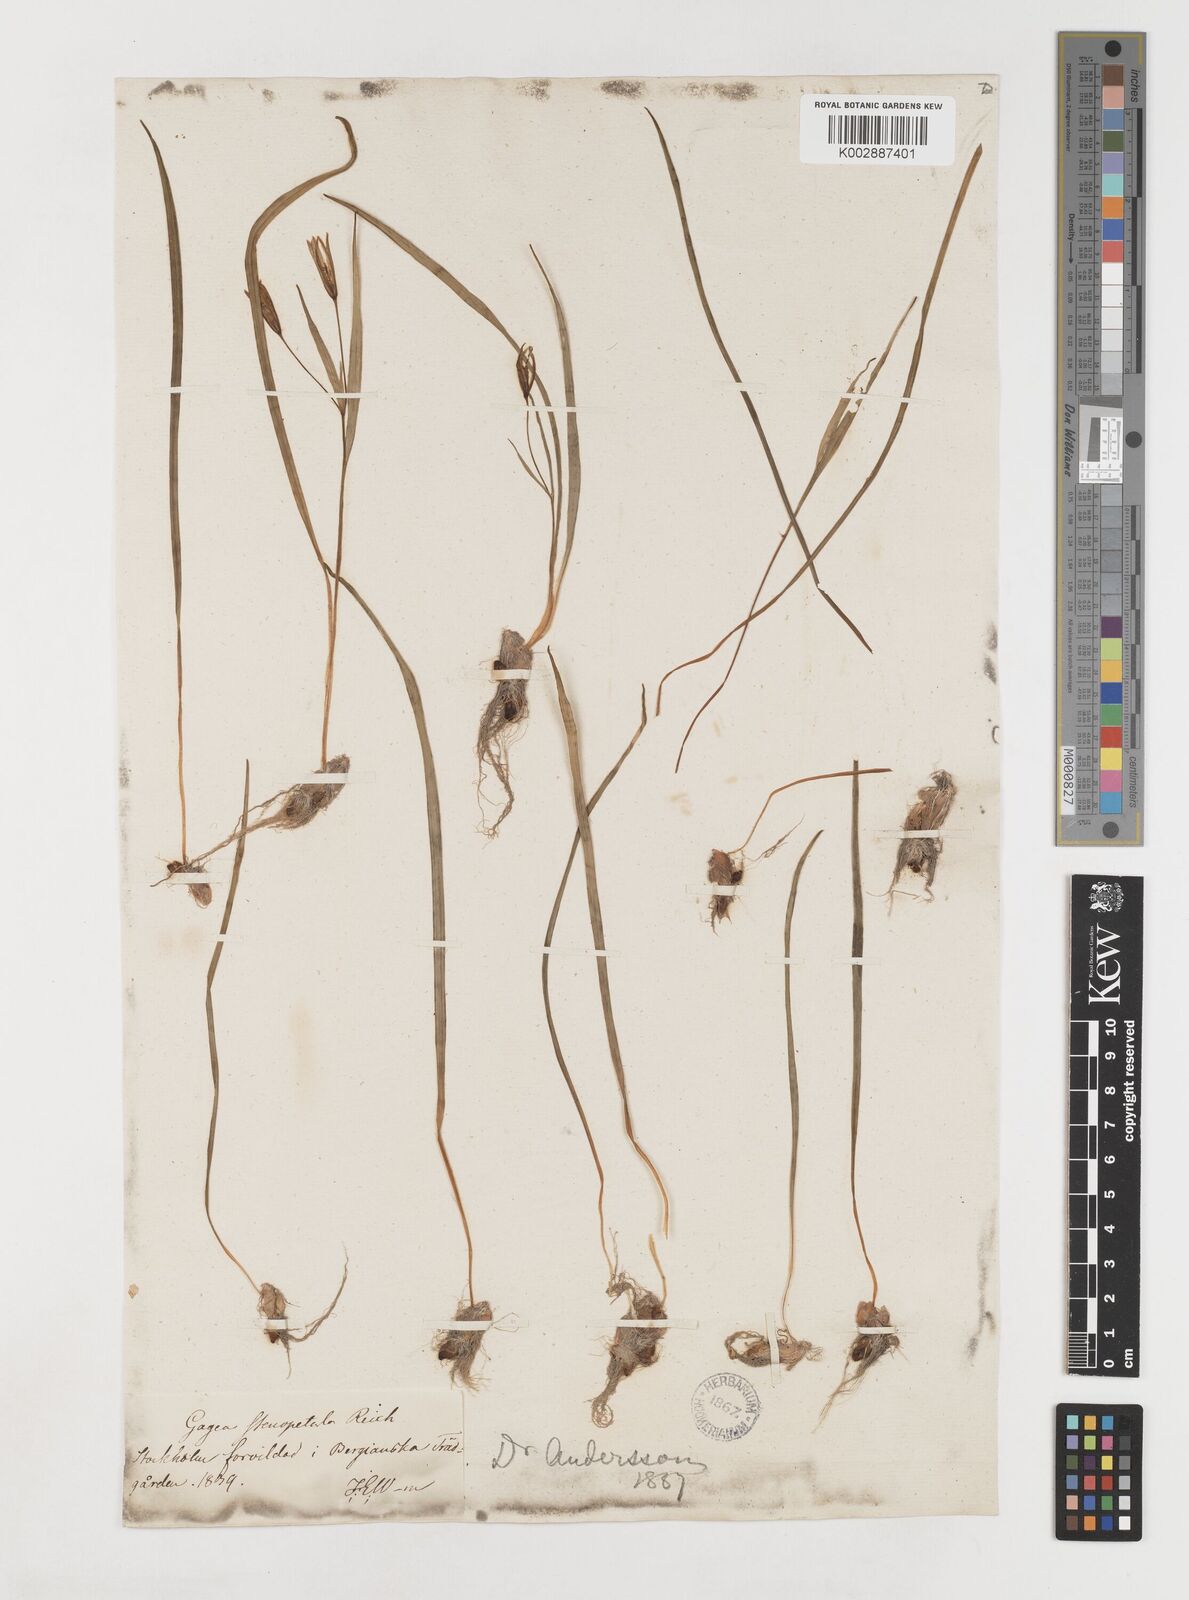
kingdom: Plantae
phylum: Tracheophyta
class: Liliopsida
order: Liliales
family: Liliaceae
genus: Gagea
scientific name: Gagea pratensis
